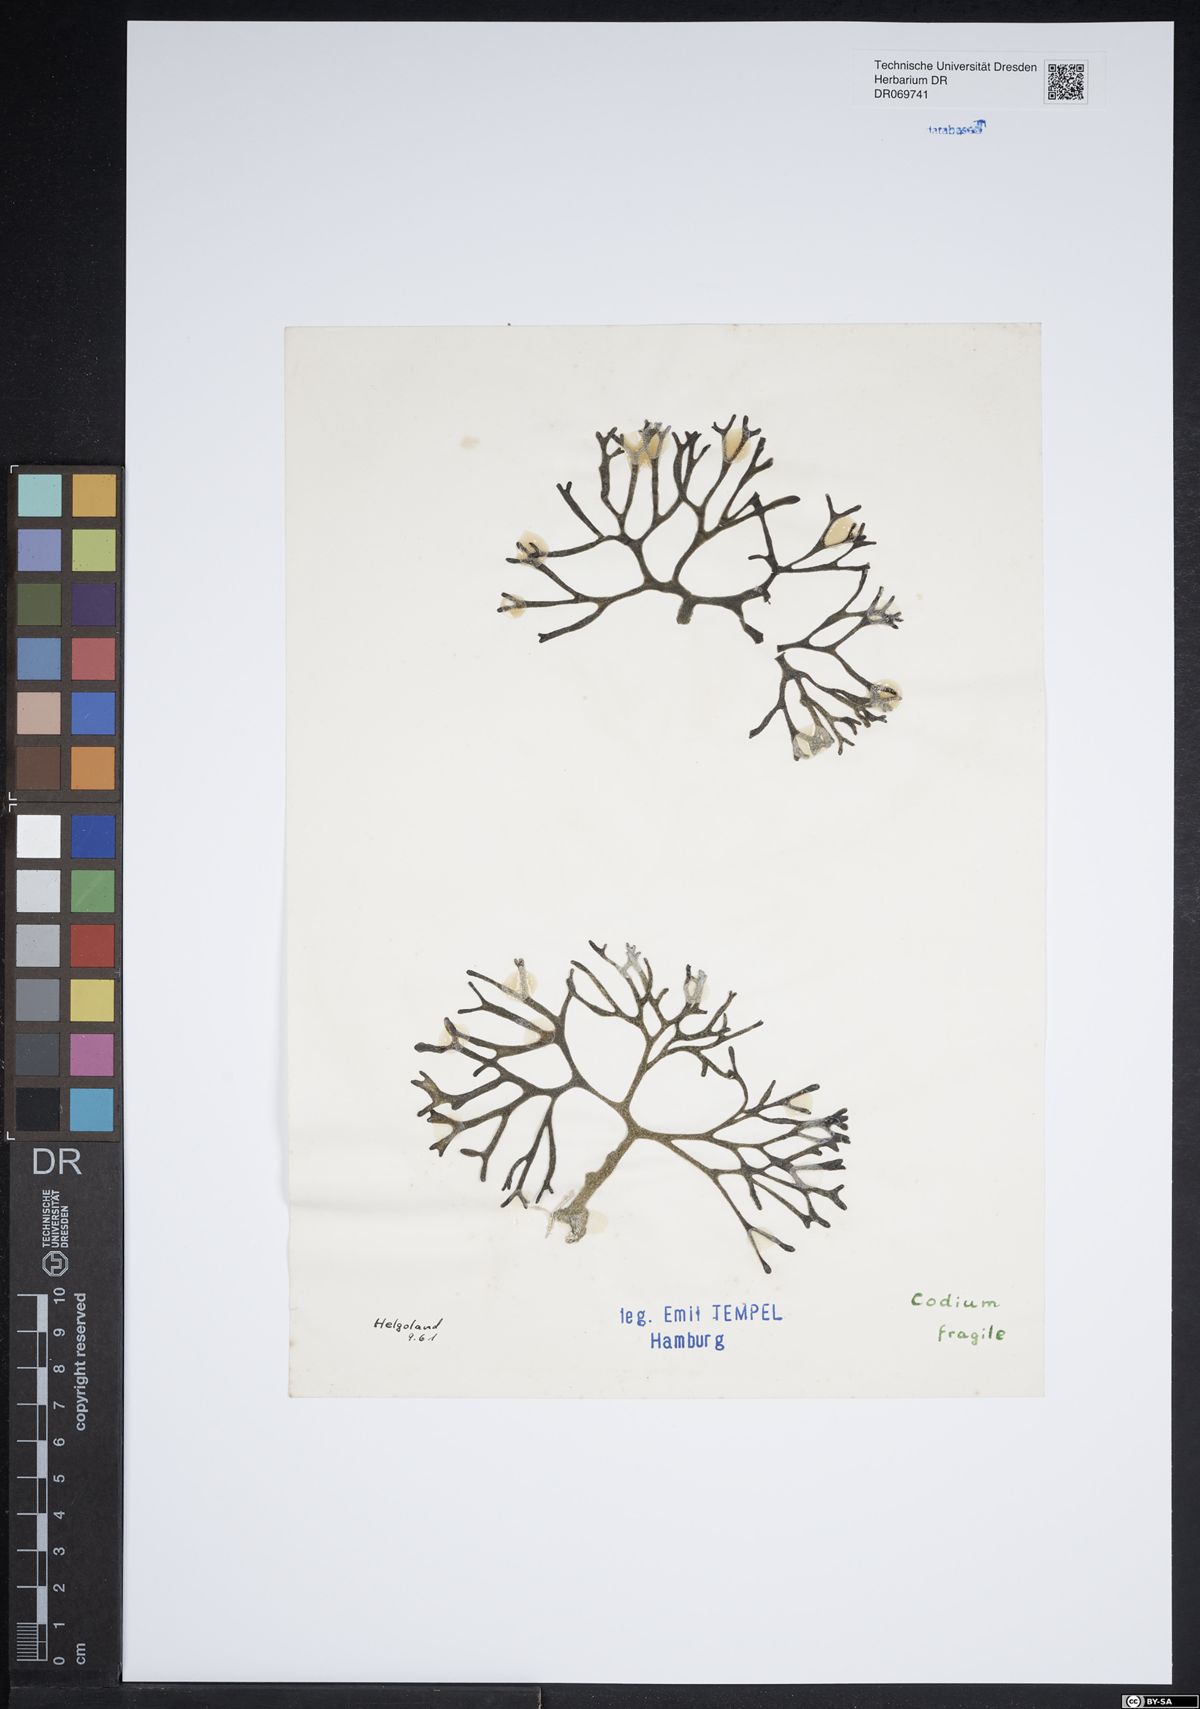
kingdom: Plantae
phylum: Chlorophyta
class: Ulvophyceae
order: Bryopsidales
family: Codiaceae
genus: Codium
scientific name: Codium fragile
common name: Dead man's fingers
